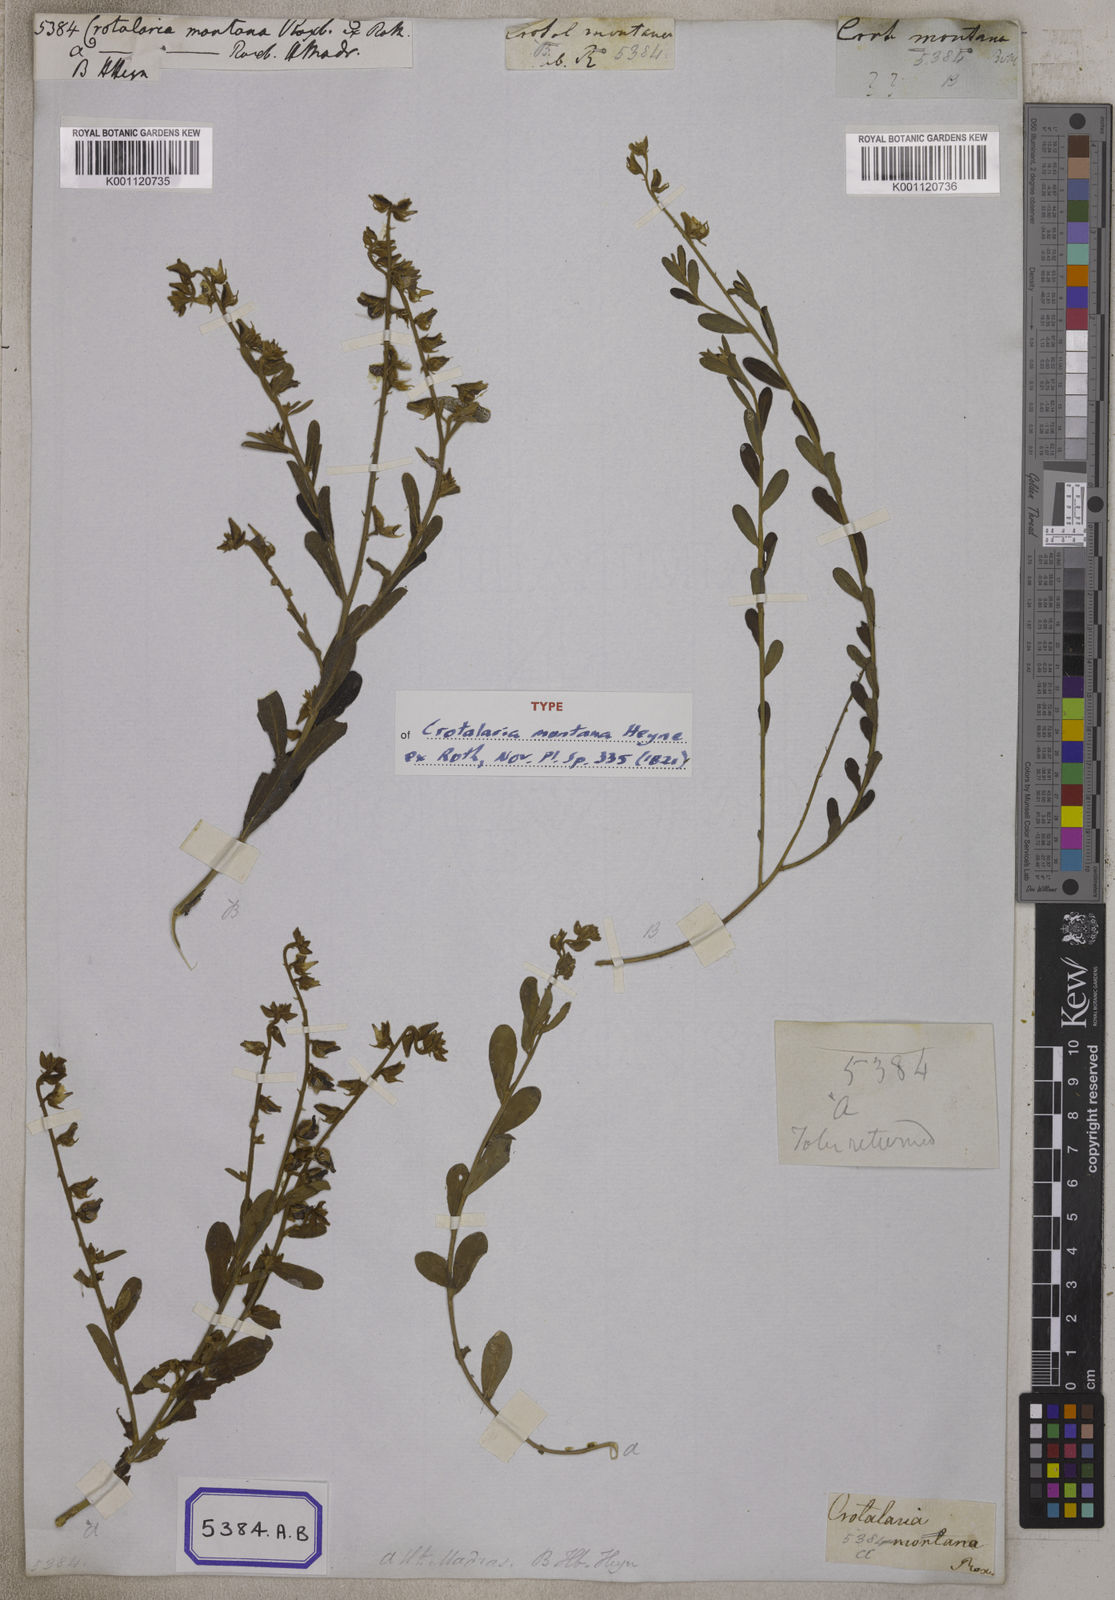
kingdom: Plantae
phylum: Tracheophyta
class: Magnoliopsida
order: Fabales
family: Fabaceae
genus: Crotalaria
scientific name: Crotalaria albida
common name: Taiwan crotalaria
